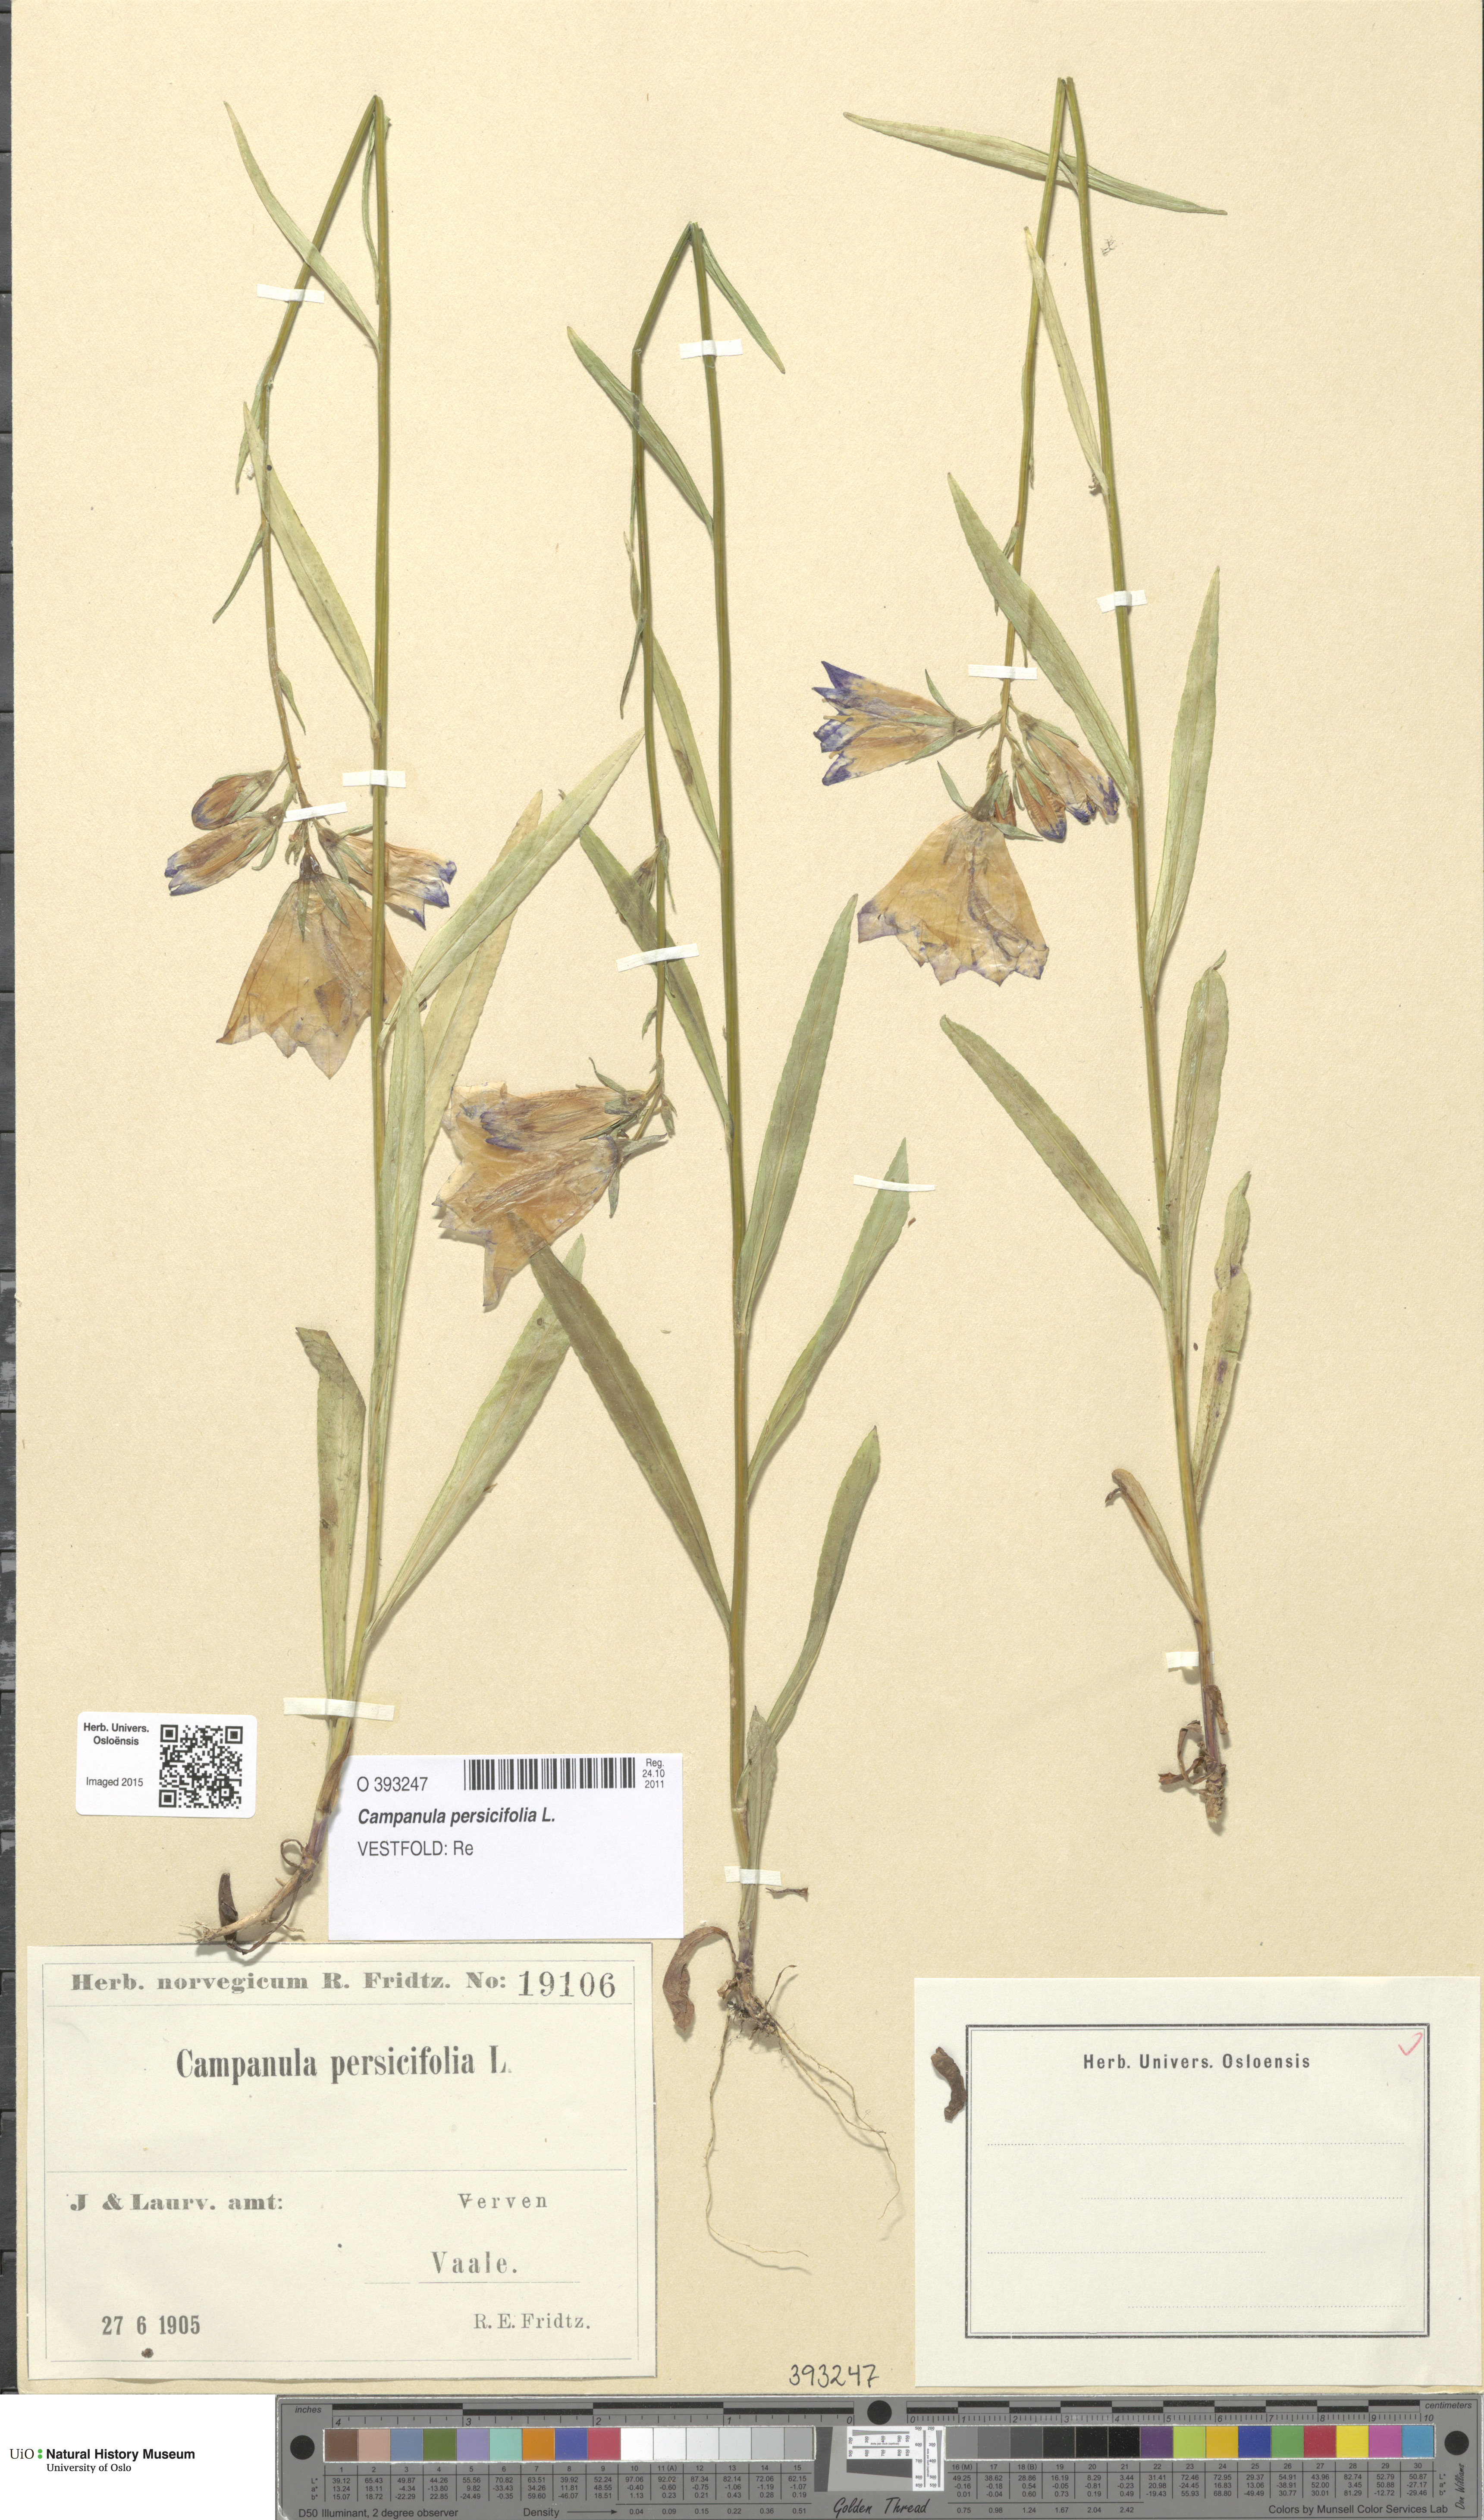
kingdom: Plantae
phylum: Tracheophyta
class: Magnoliopsida
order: Asterales
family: Campanulaceae
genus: Campanula
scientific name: Campanula persicifolia
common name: Peach-leaved bellflower
